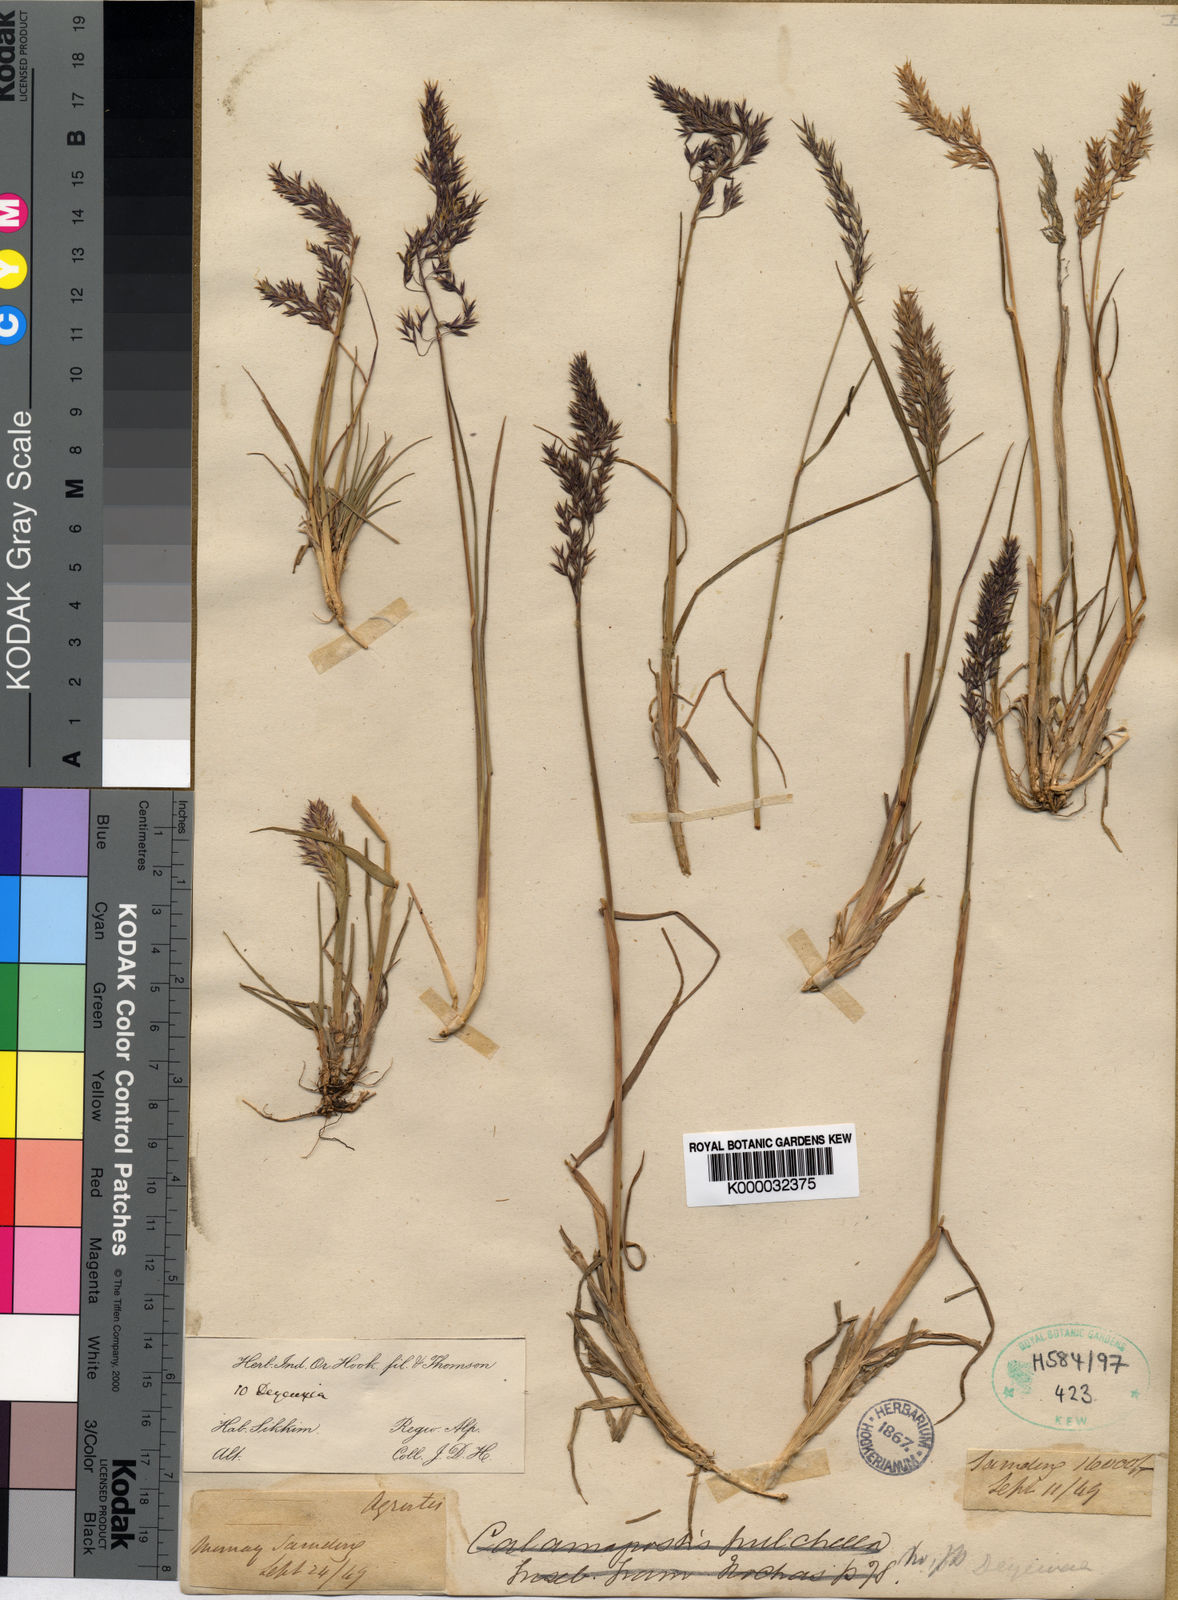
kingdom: Plantae
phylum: Tracheophyta
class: Liliopsida
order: Poales
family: Poaceae
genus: Calamagrostis
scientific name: Calamagrostis lahulensis
